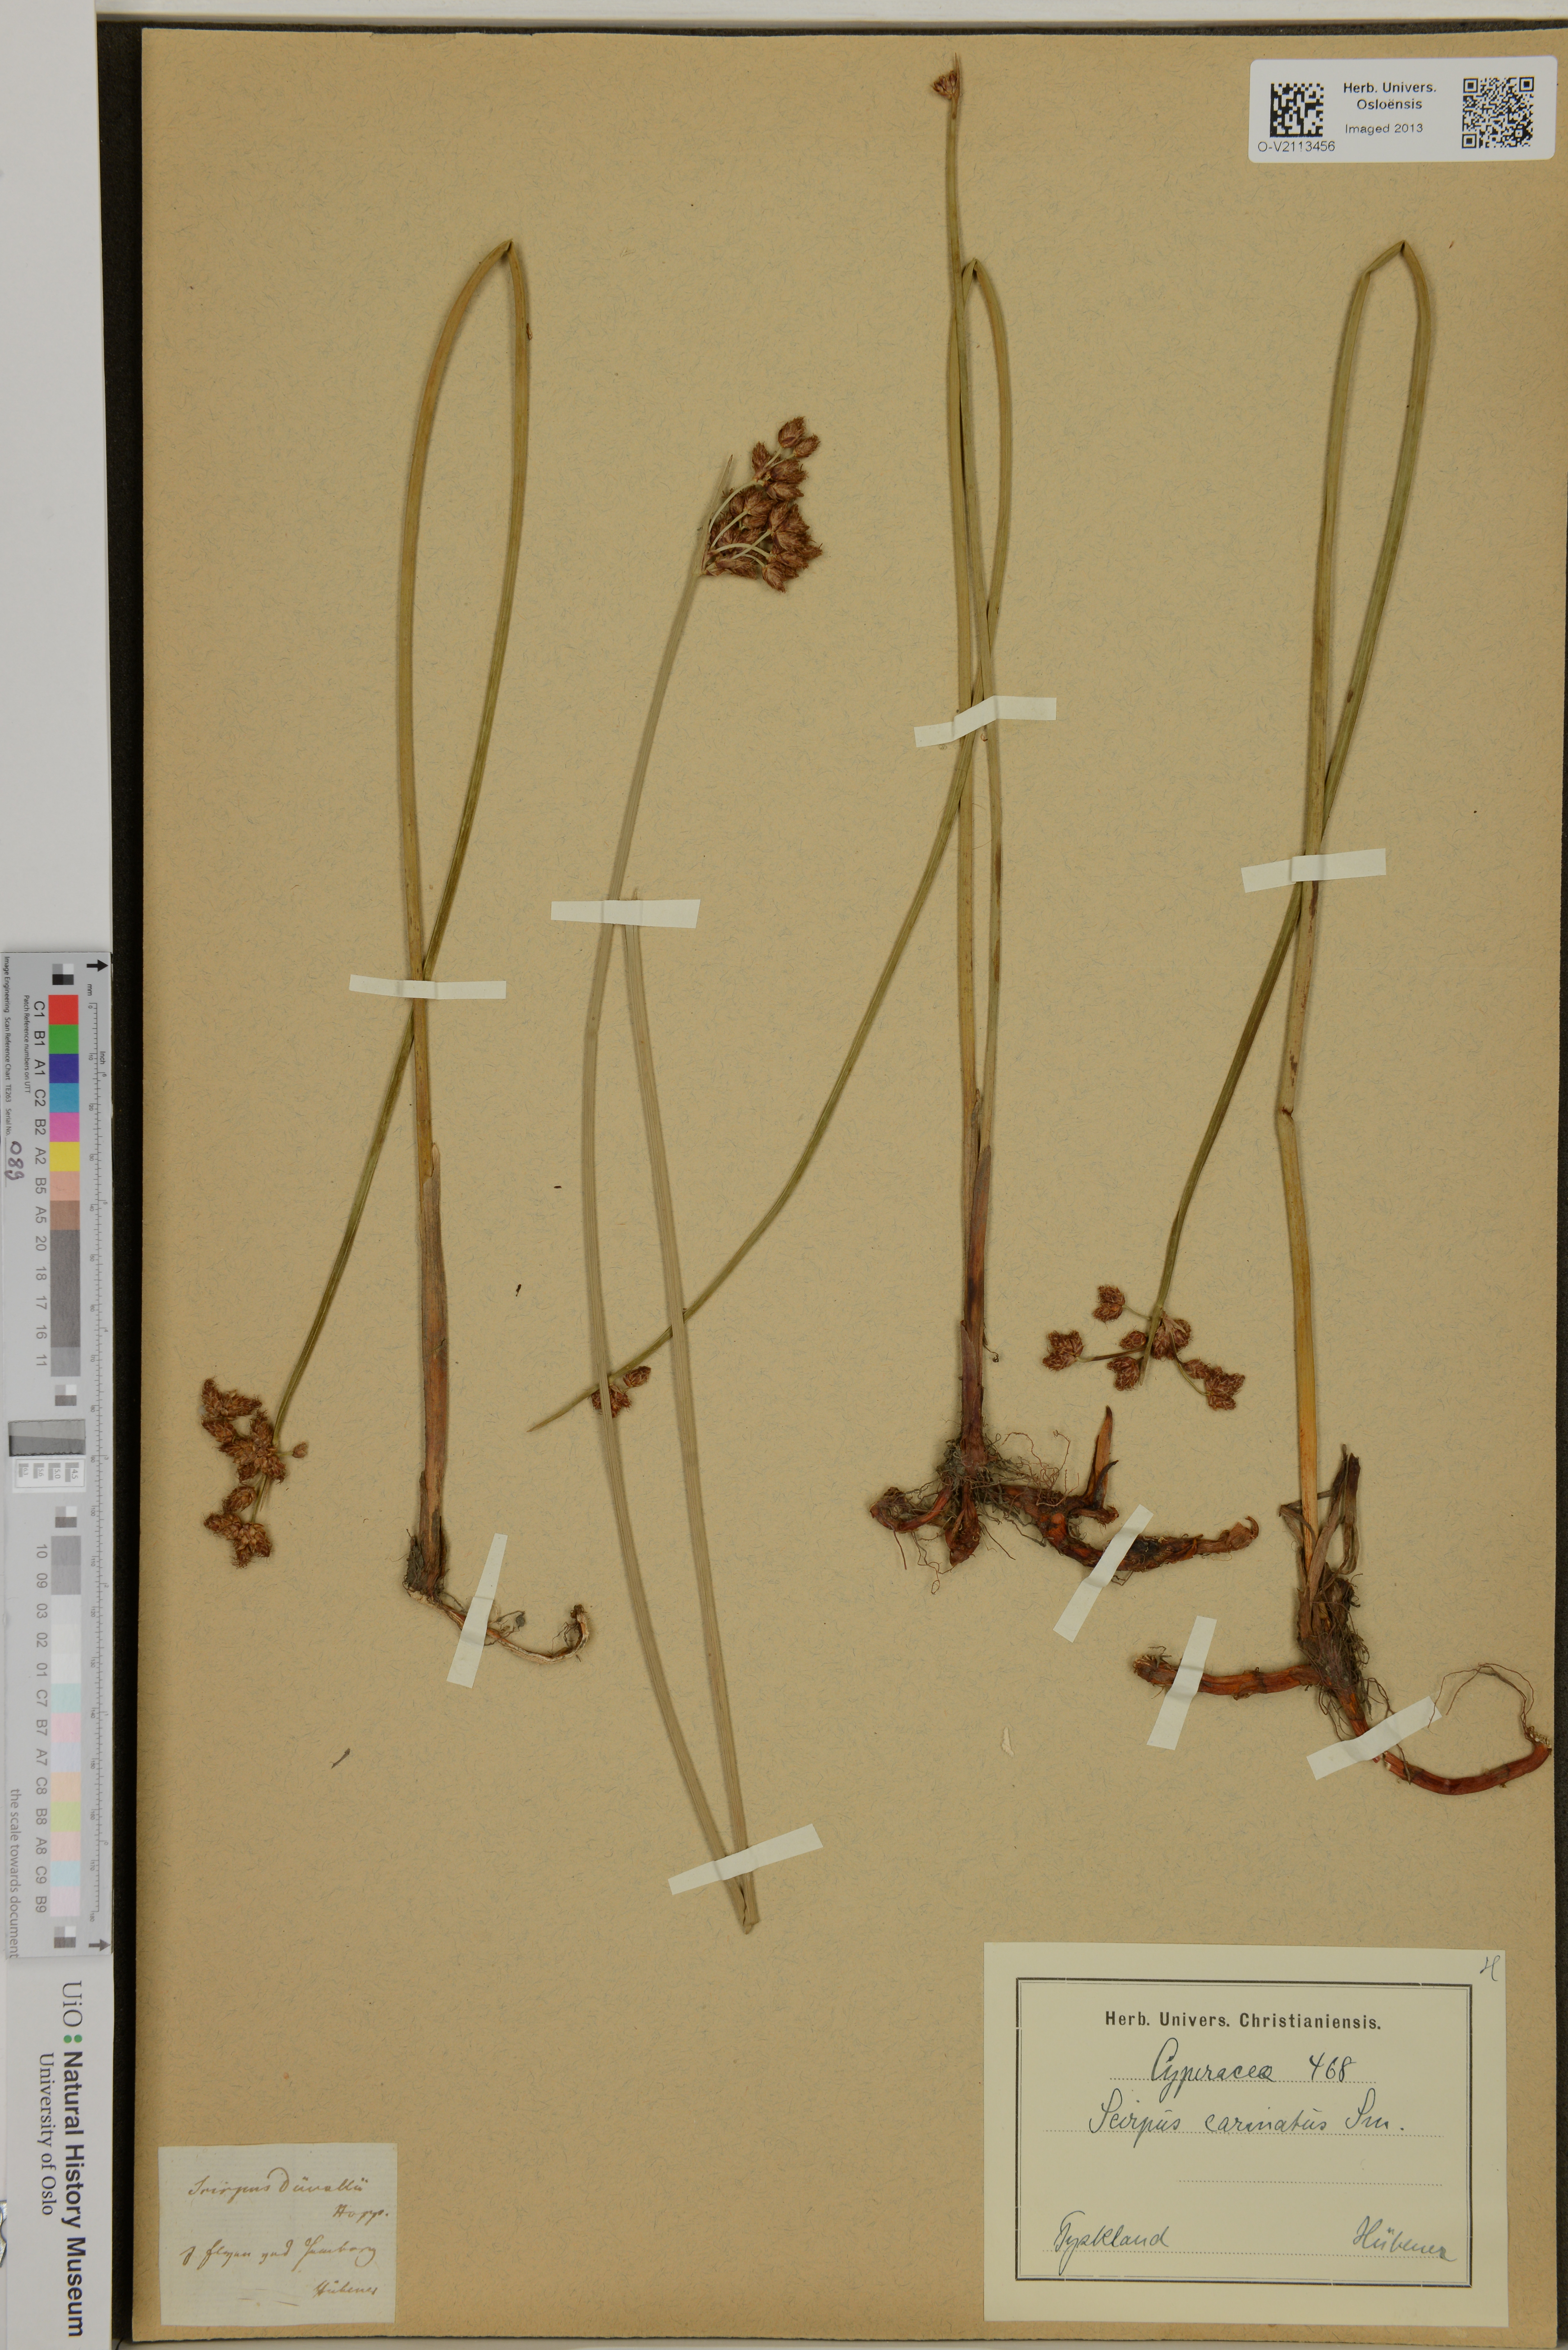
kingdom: Plantae
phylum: Tracheophyta
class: Liliopsida
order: Poales
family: Cyperaceae
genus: Schoenoplectus
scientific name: Schoenoplectus carinatus
